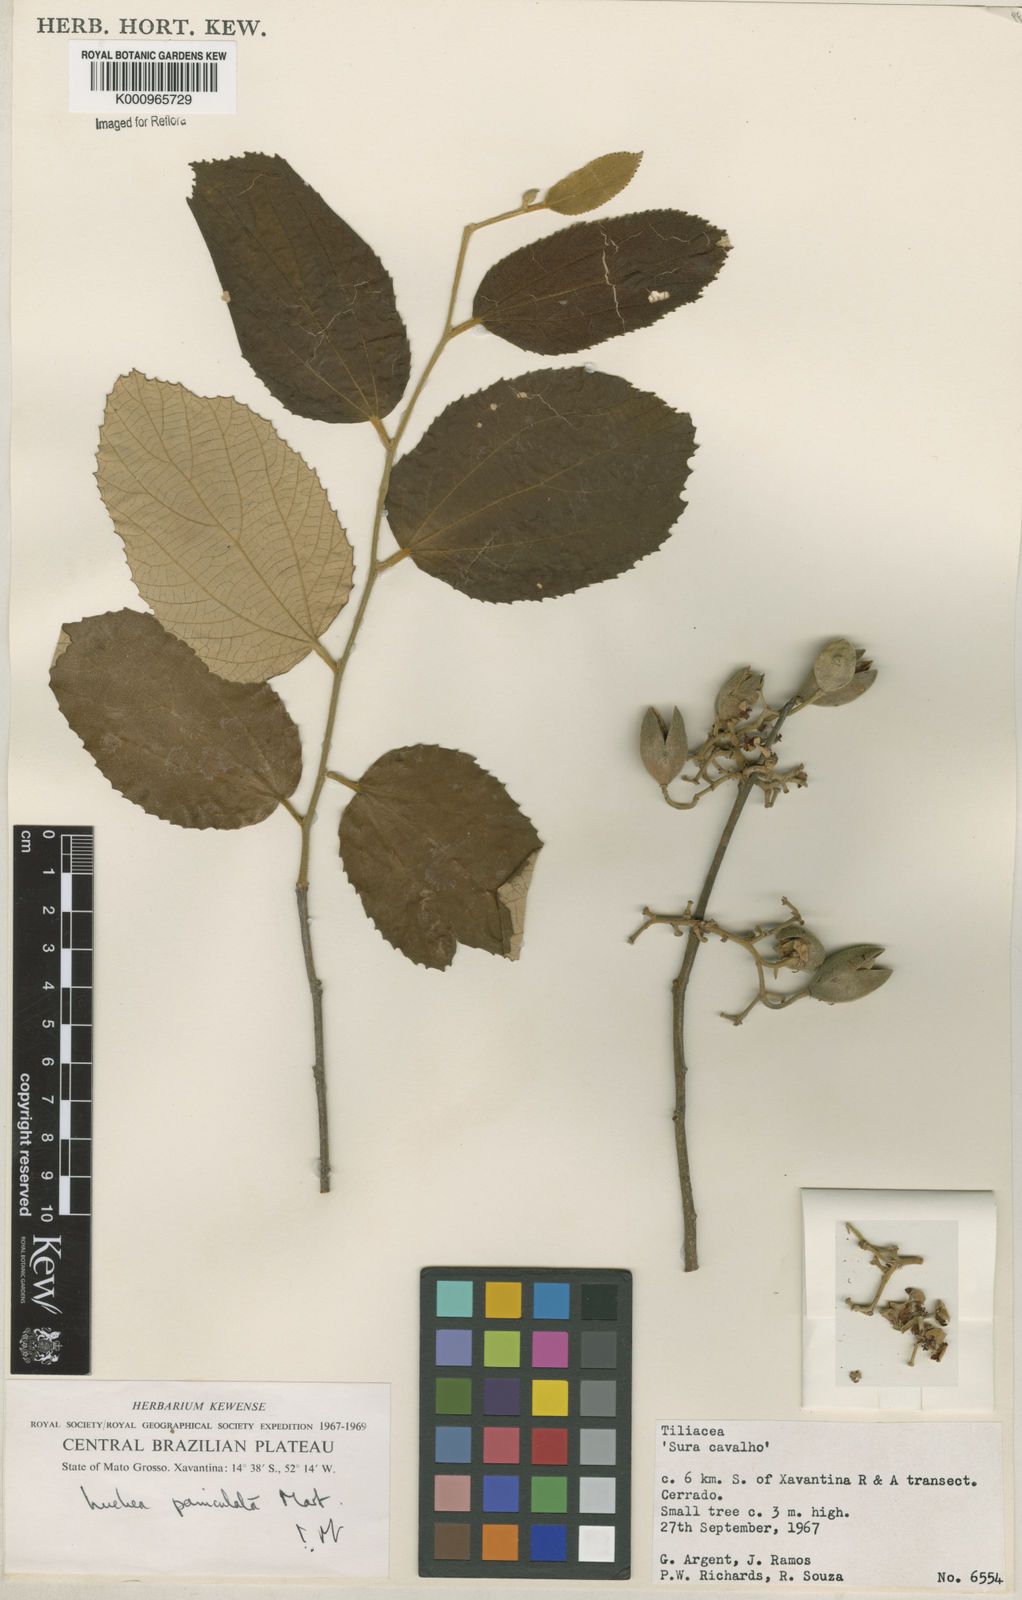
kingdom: Plantae
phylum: Tracheophyta
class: Magnoliopsida
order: Malvales
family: Malvaceae
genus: Luehea
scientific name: Luehea paniculata
